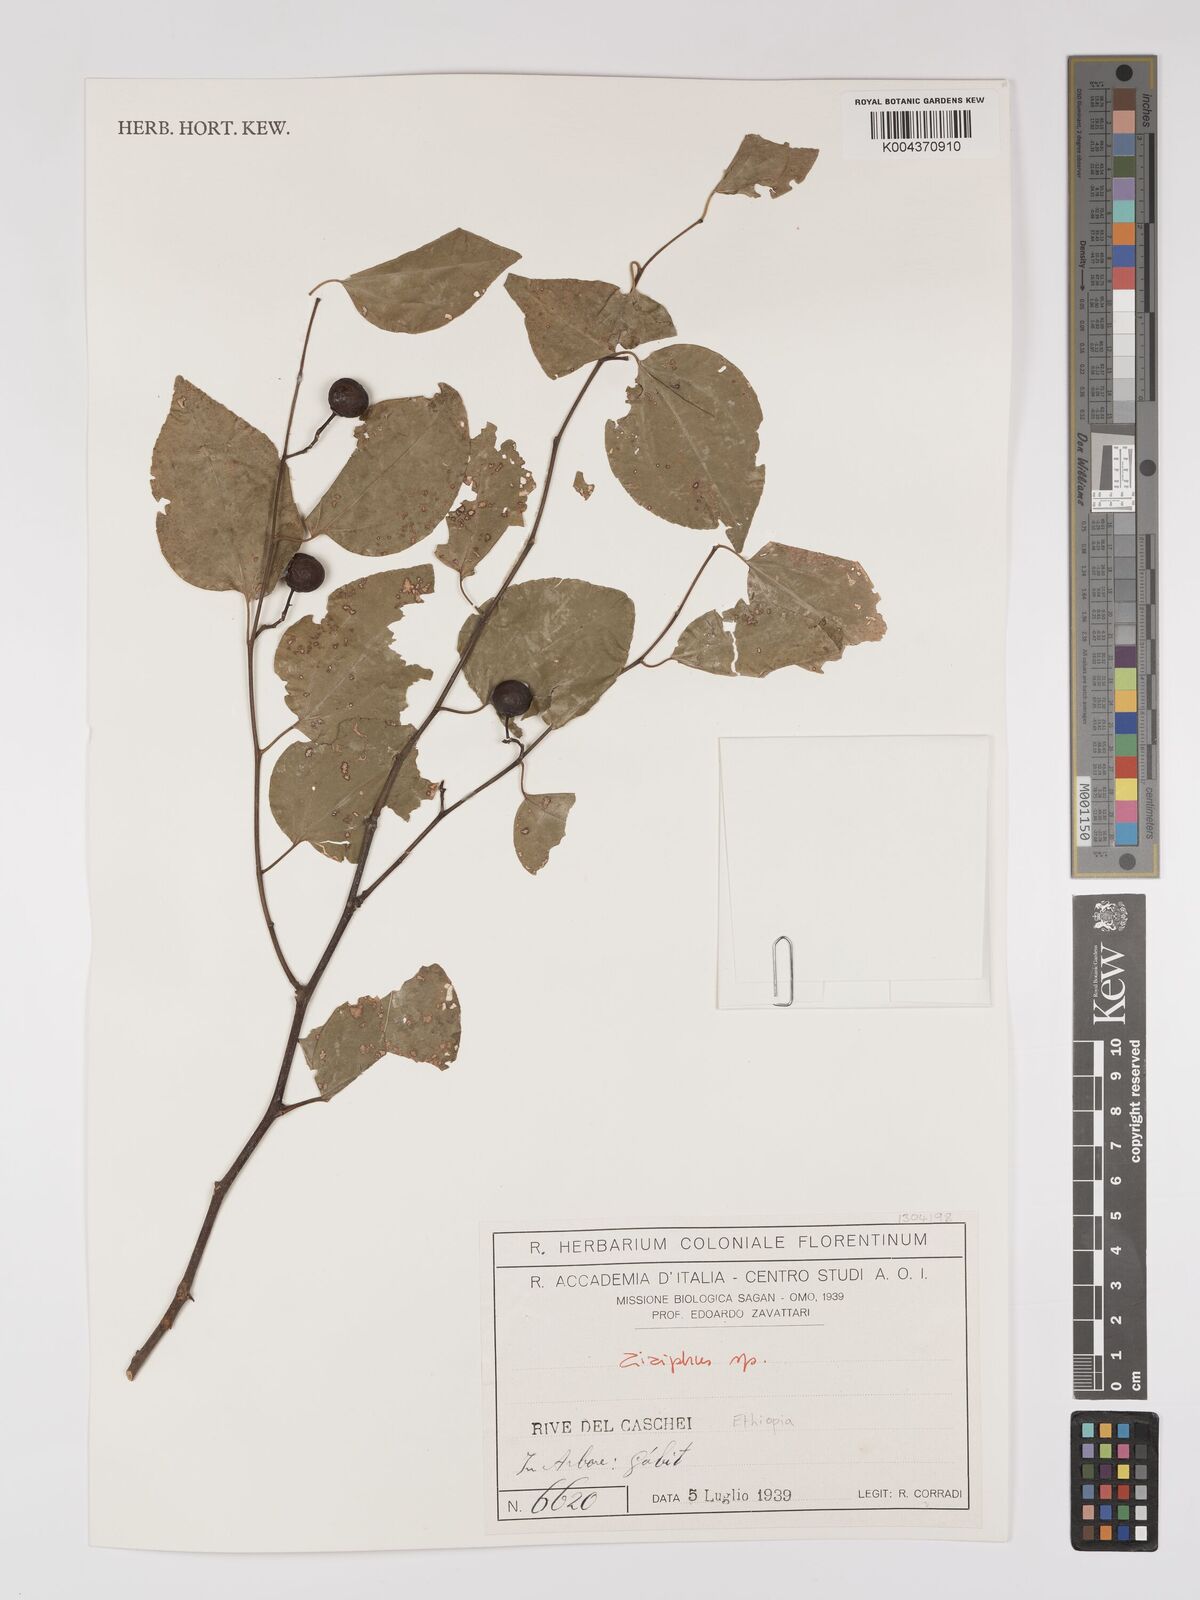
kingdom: Plantae
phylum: Tracheophyta
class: Magnoliopsida
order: Rosales
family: Rhamnaceae
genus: Ziziphus
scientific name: Ziziphus
